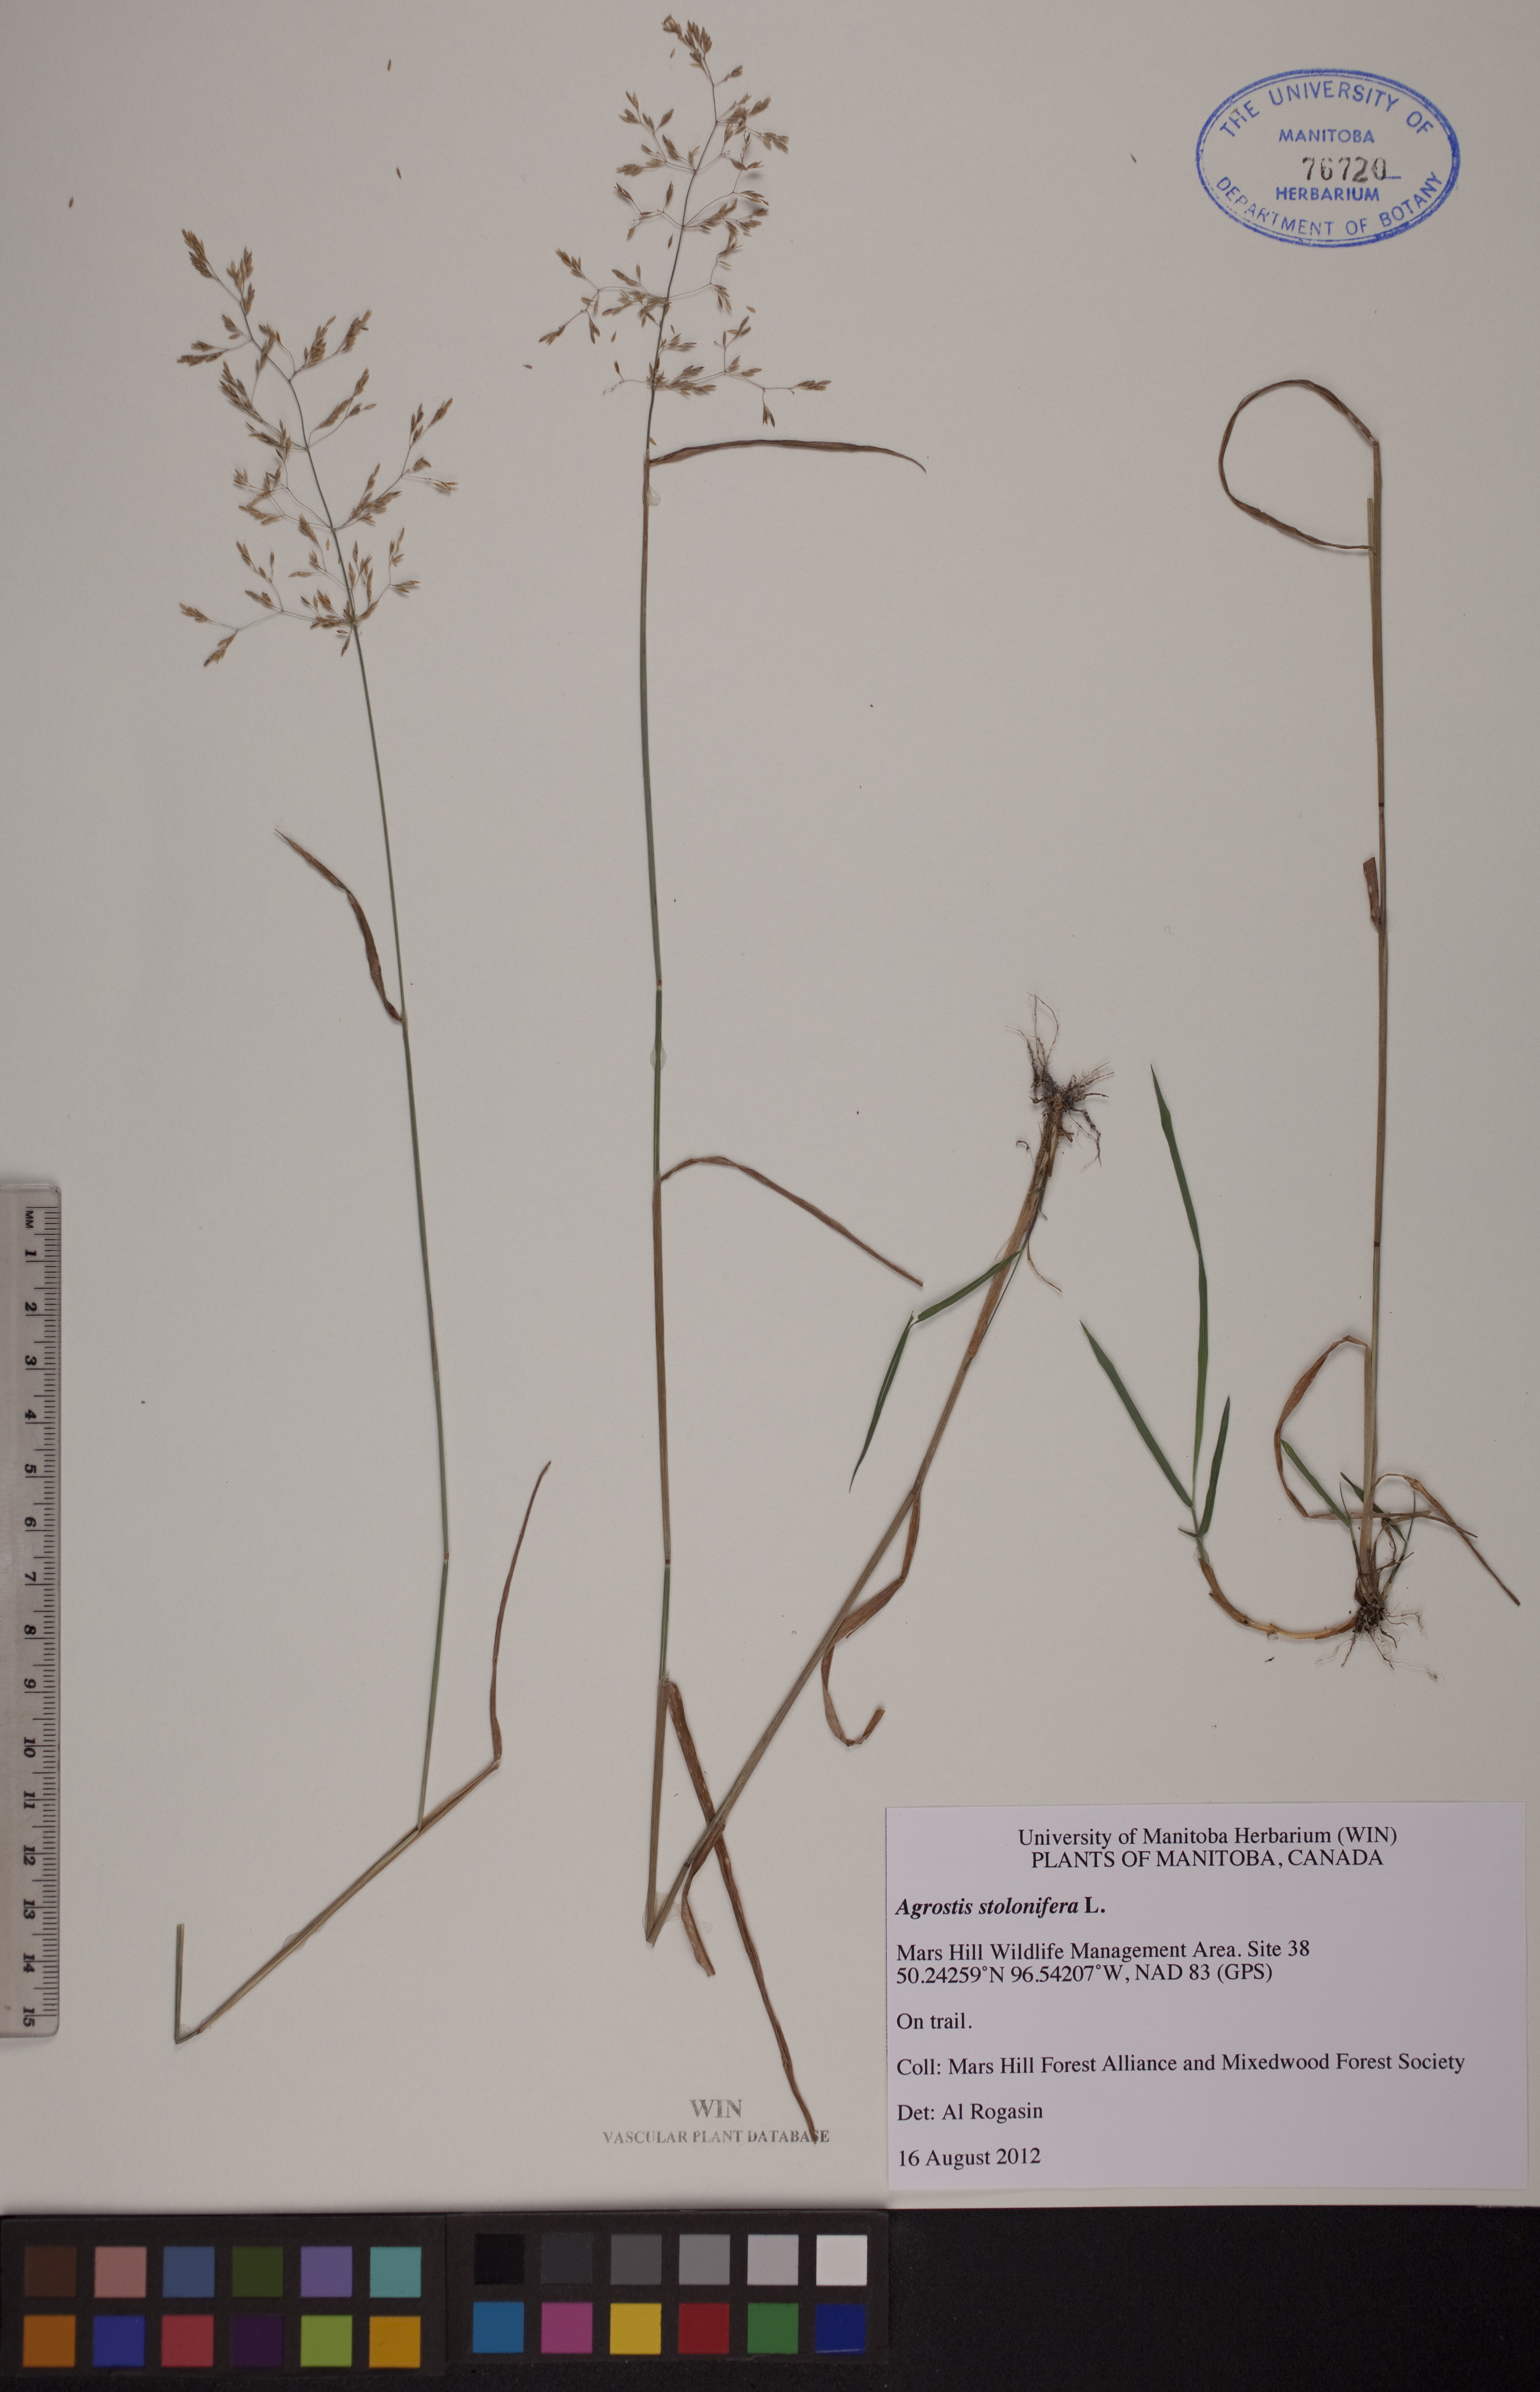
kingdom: Plantae
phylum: Tracheophyta
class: Liliopsida
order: Poales
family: Poaceae
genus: Agrostis
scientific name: Agrostis stolonifera
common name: Creeping bentgrass
